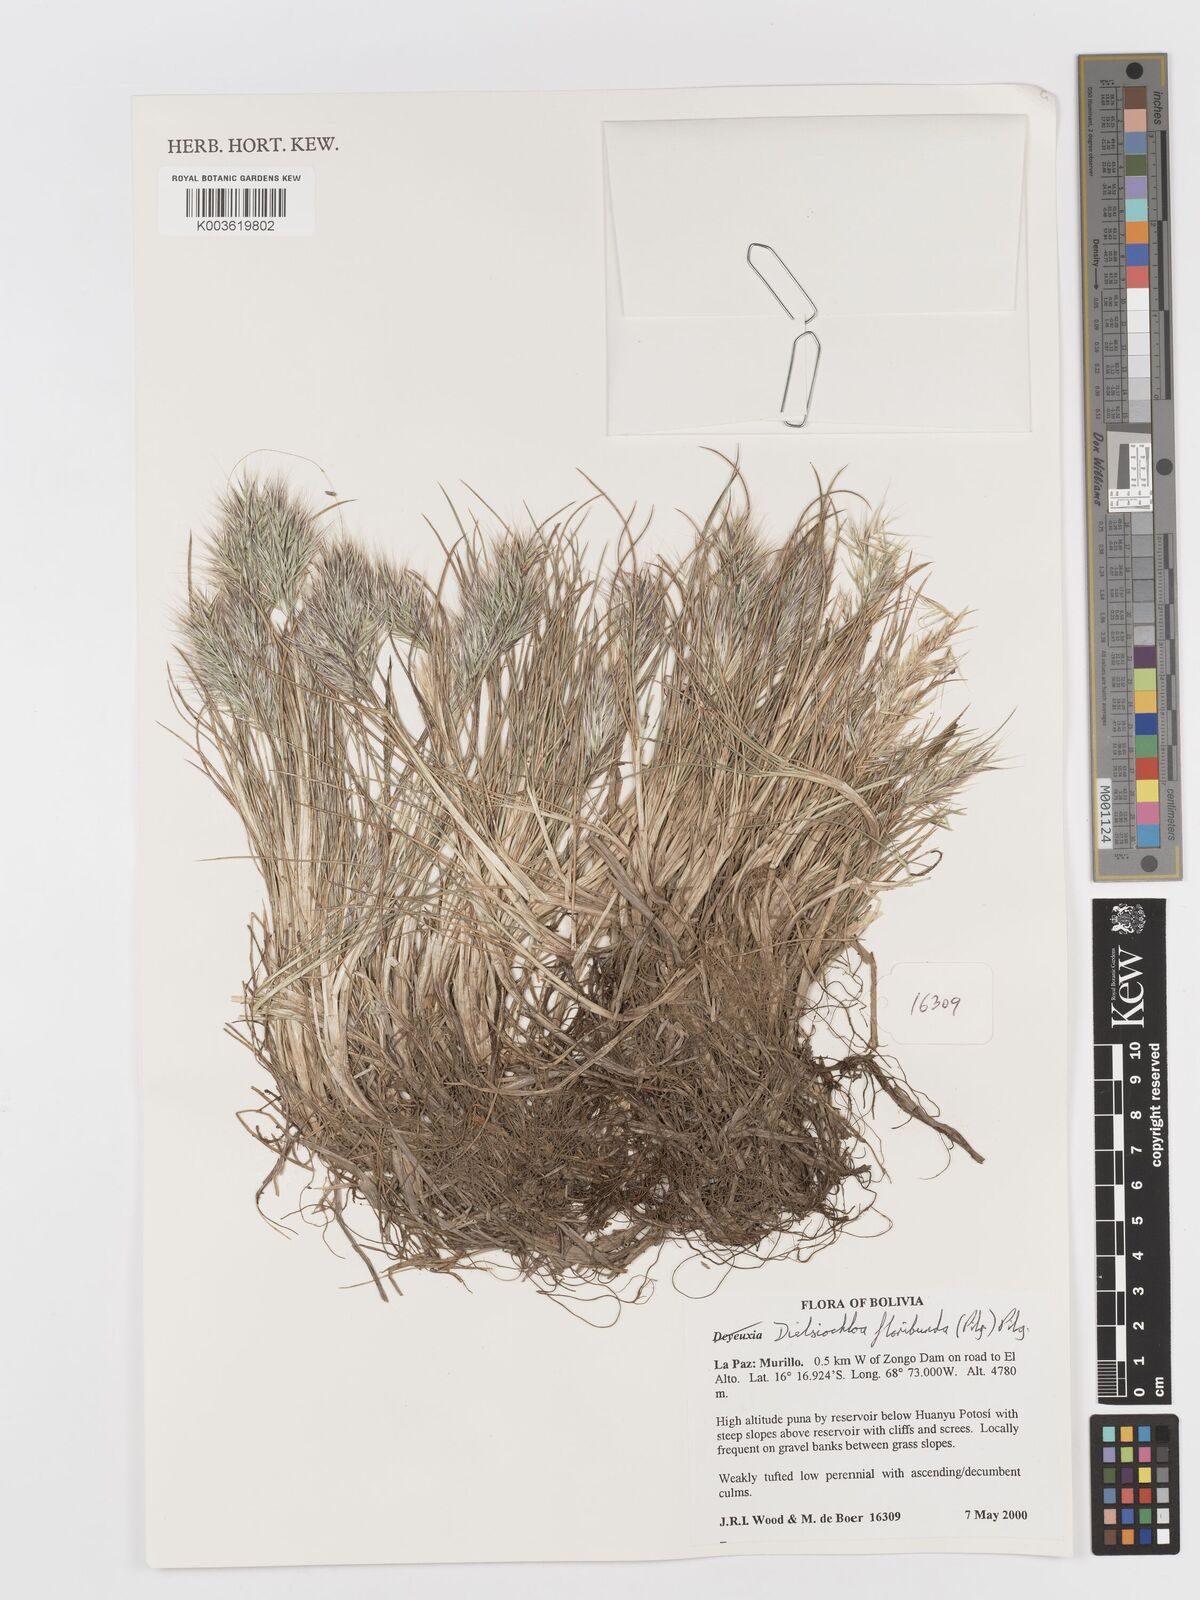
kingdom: Plantae
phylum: Tracheophyta
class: Liliopsida
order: Poales
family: Poaceae
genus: Festuca
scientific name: Festuca floribunda
